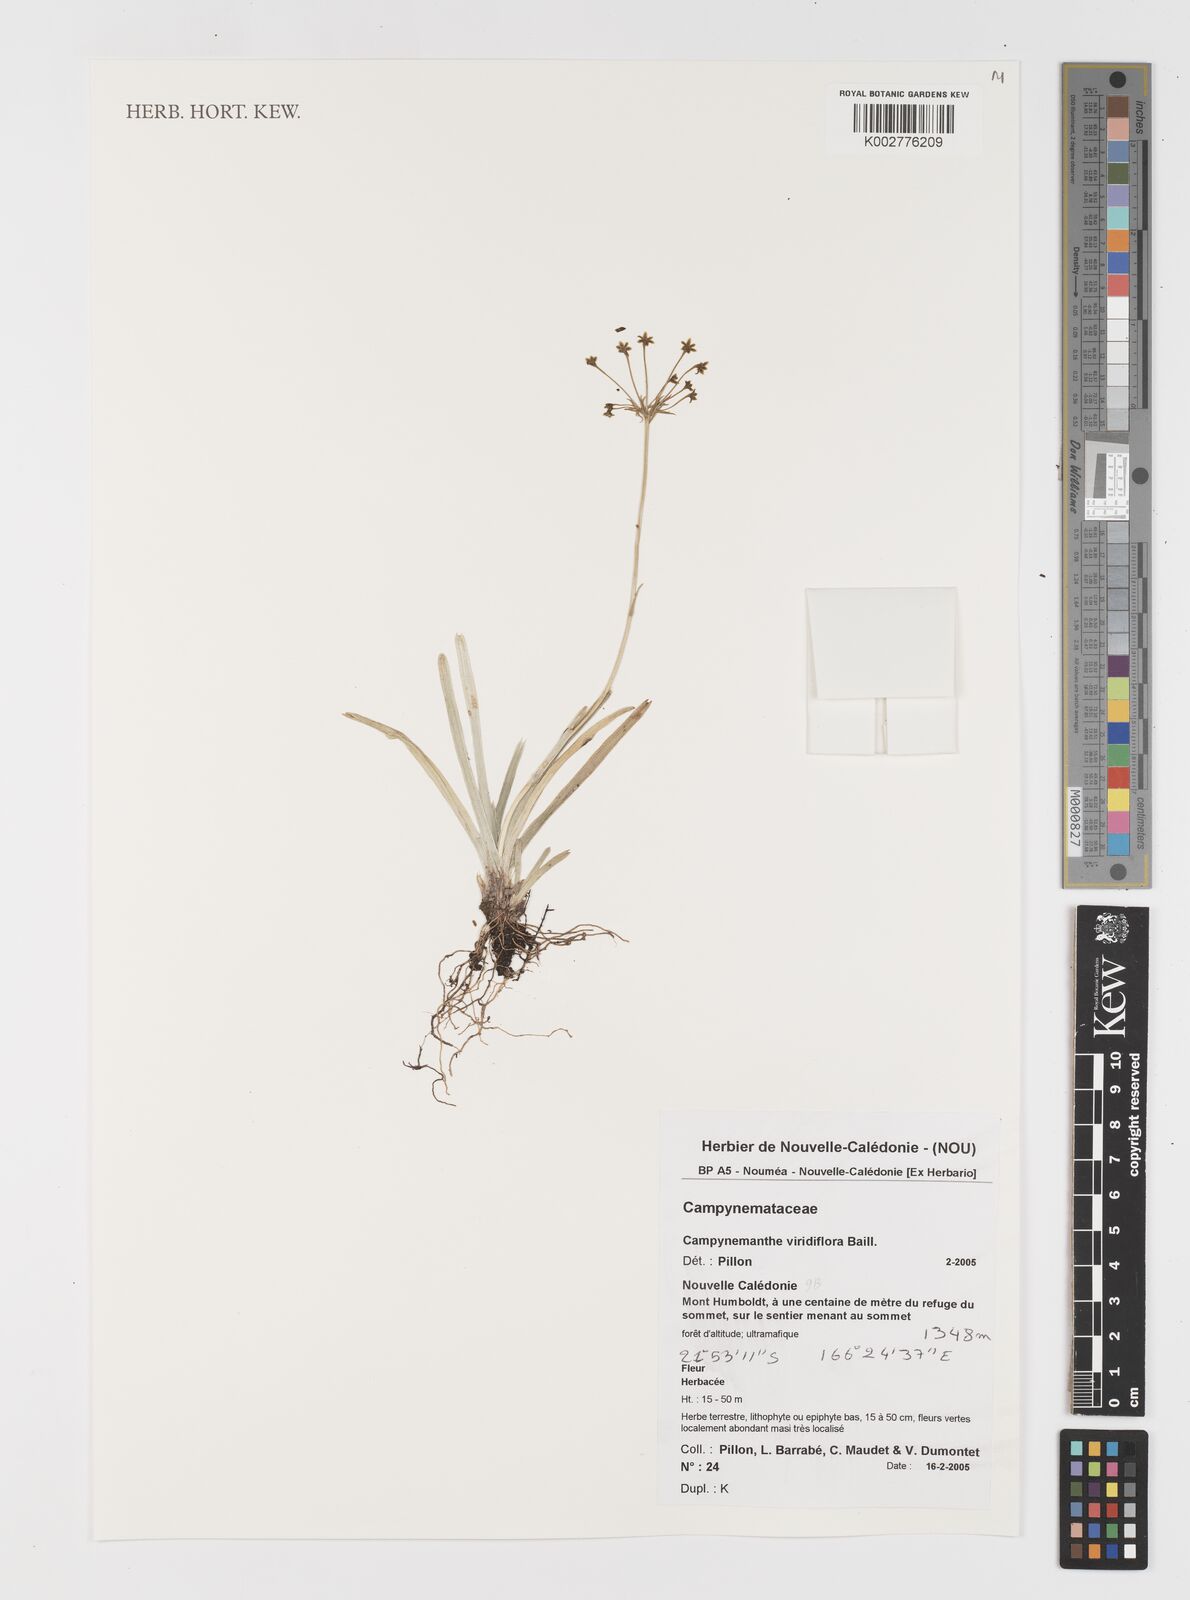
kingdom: Plantae
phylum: Tracheophyta
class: Liliopsida
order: Liliales
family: Campynemataceae
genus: Campynemanthe
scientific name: Campynemanthe viridiflora
